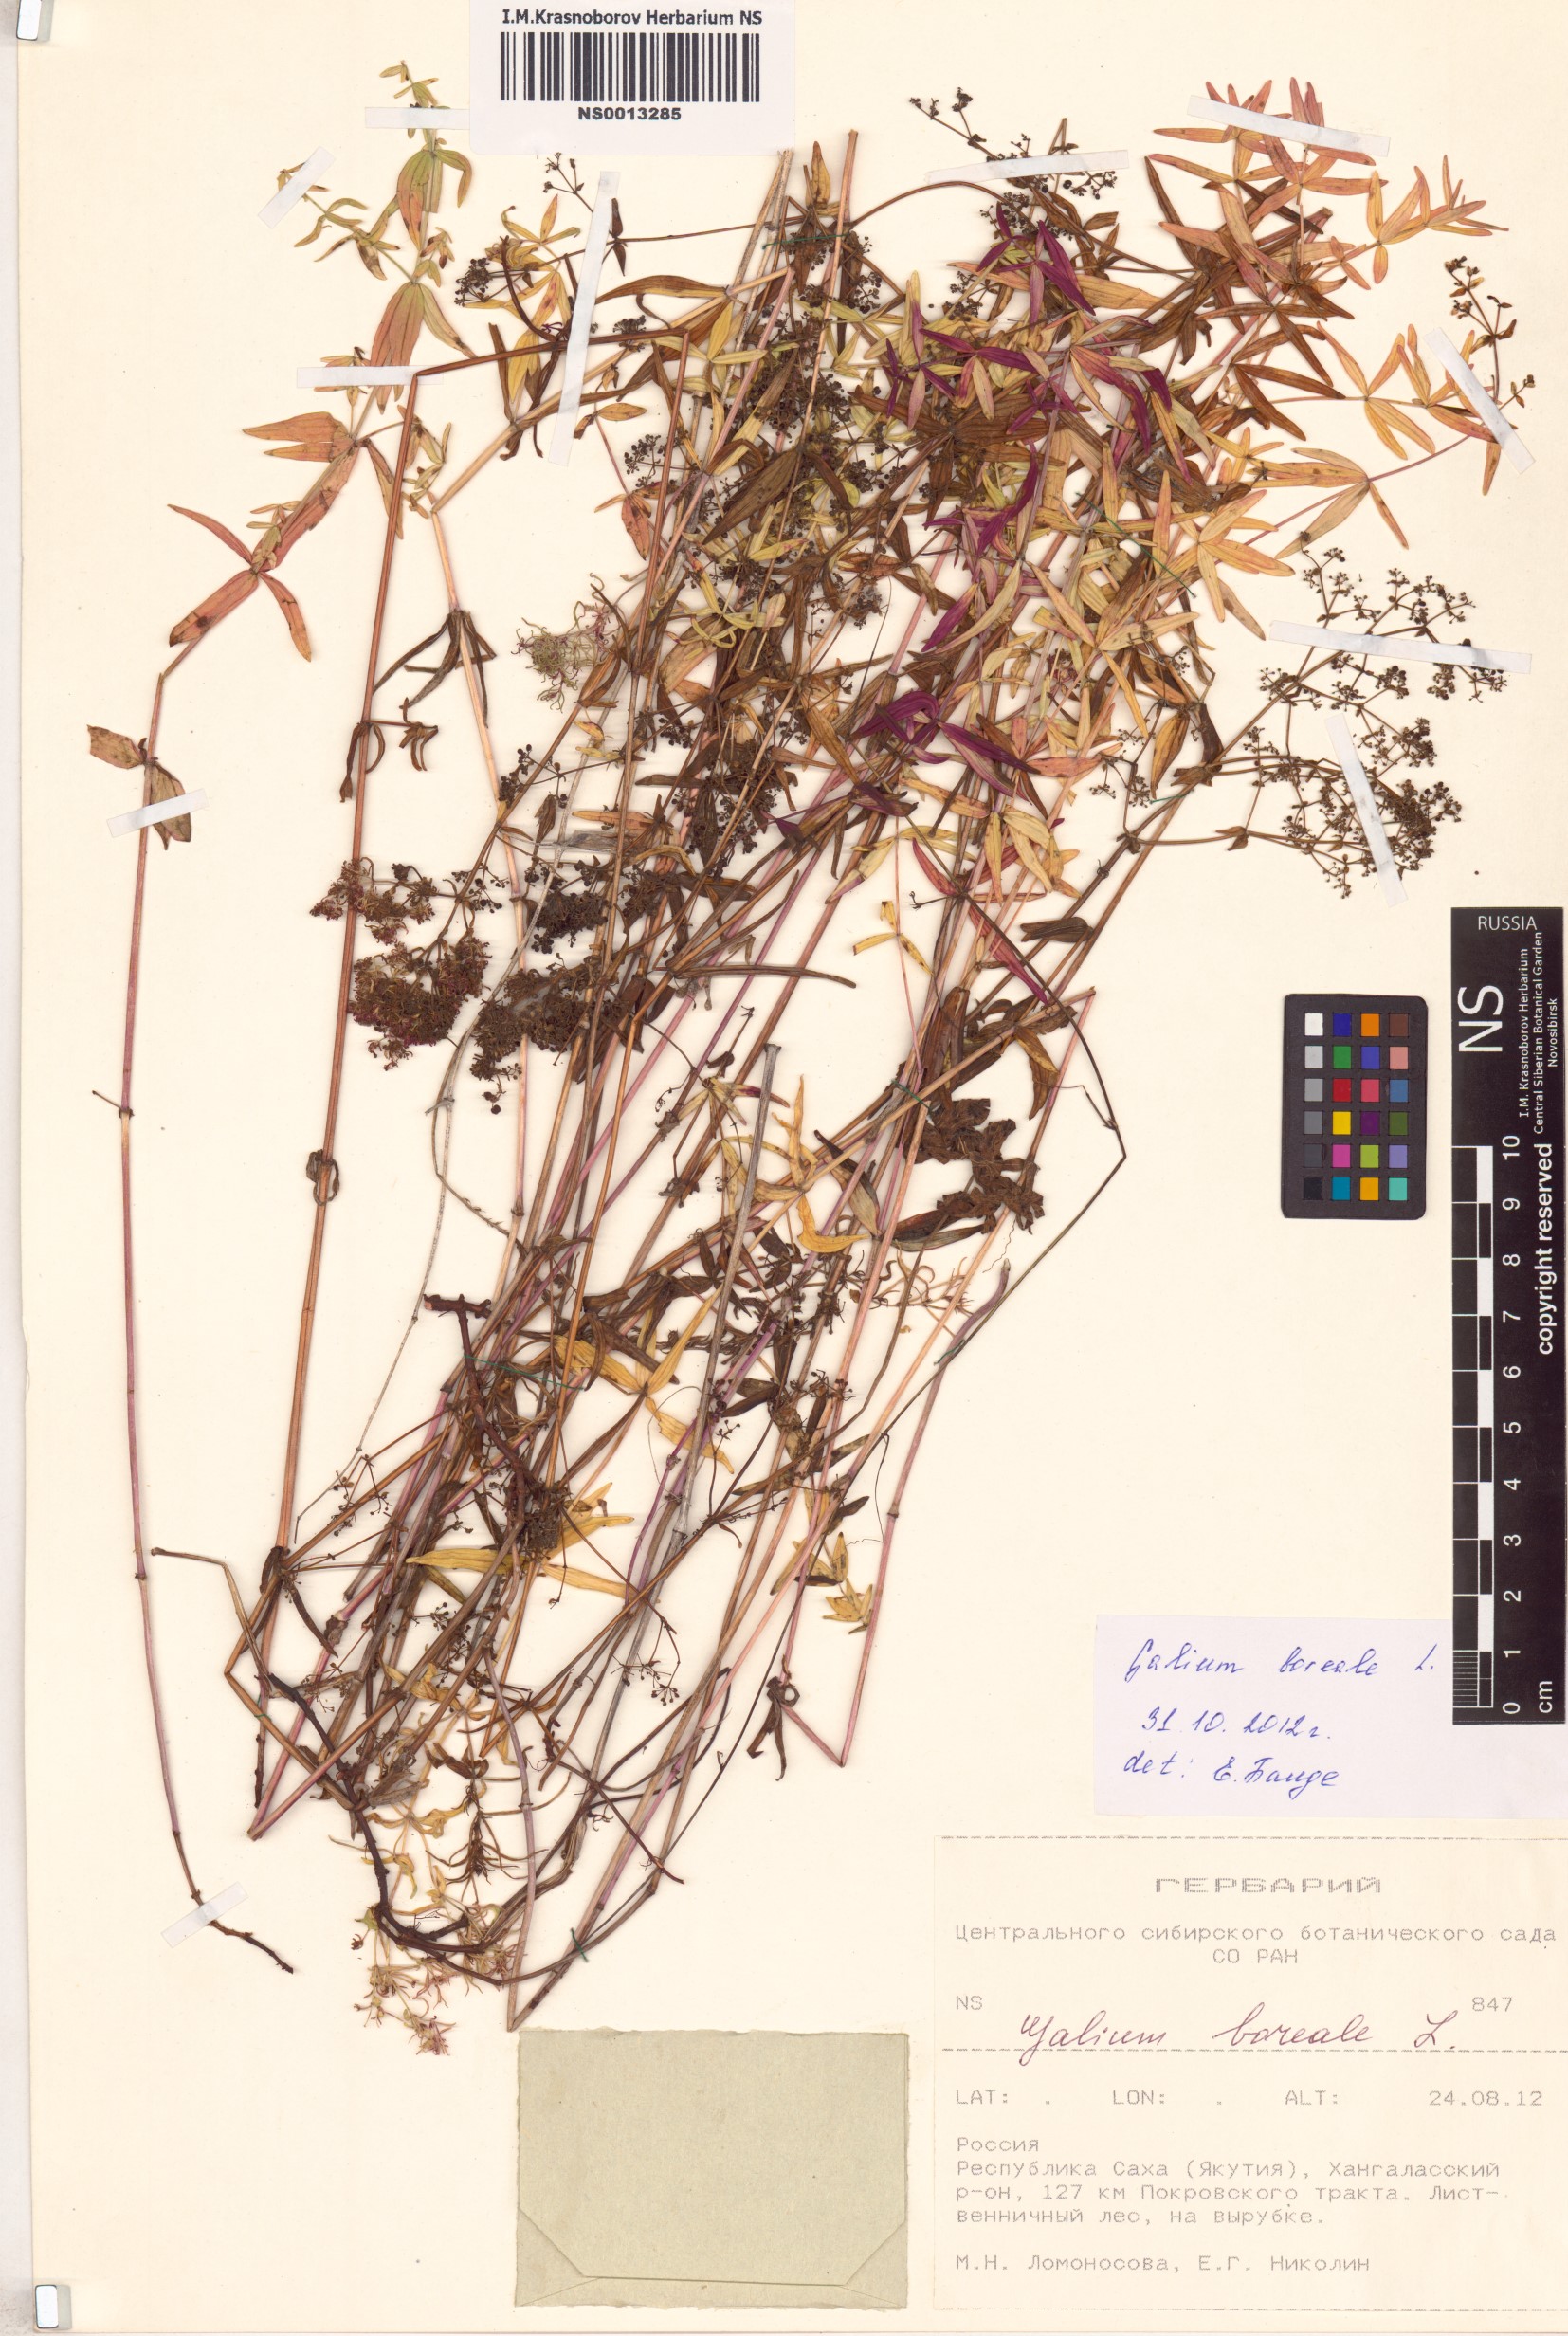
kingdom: Plantae
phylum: Tracheophyta
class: Magnoliopsida
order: Gentianales
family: Rubiaceae
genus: Galium
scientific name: Galium boreale
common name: Northern bedstraw
